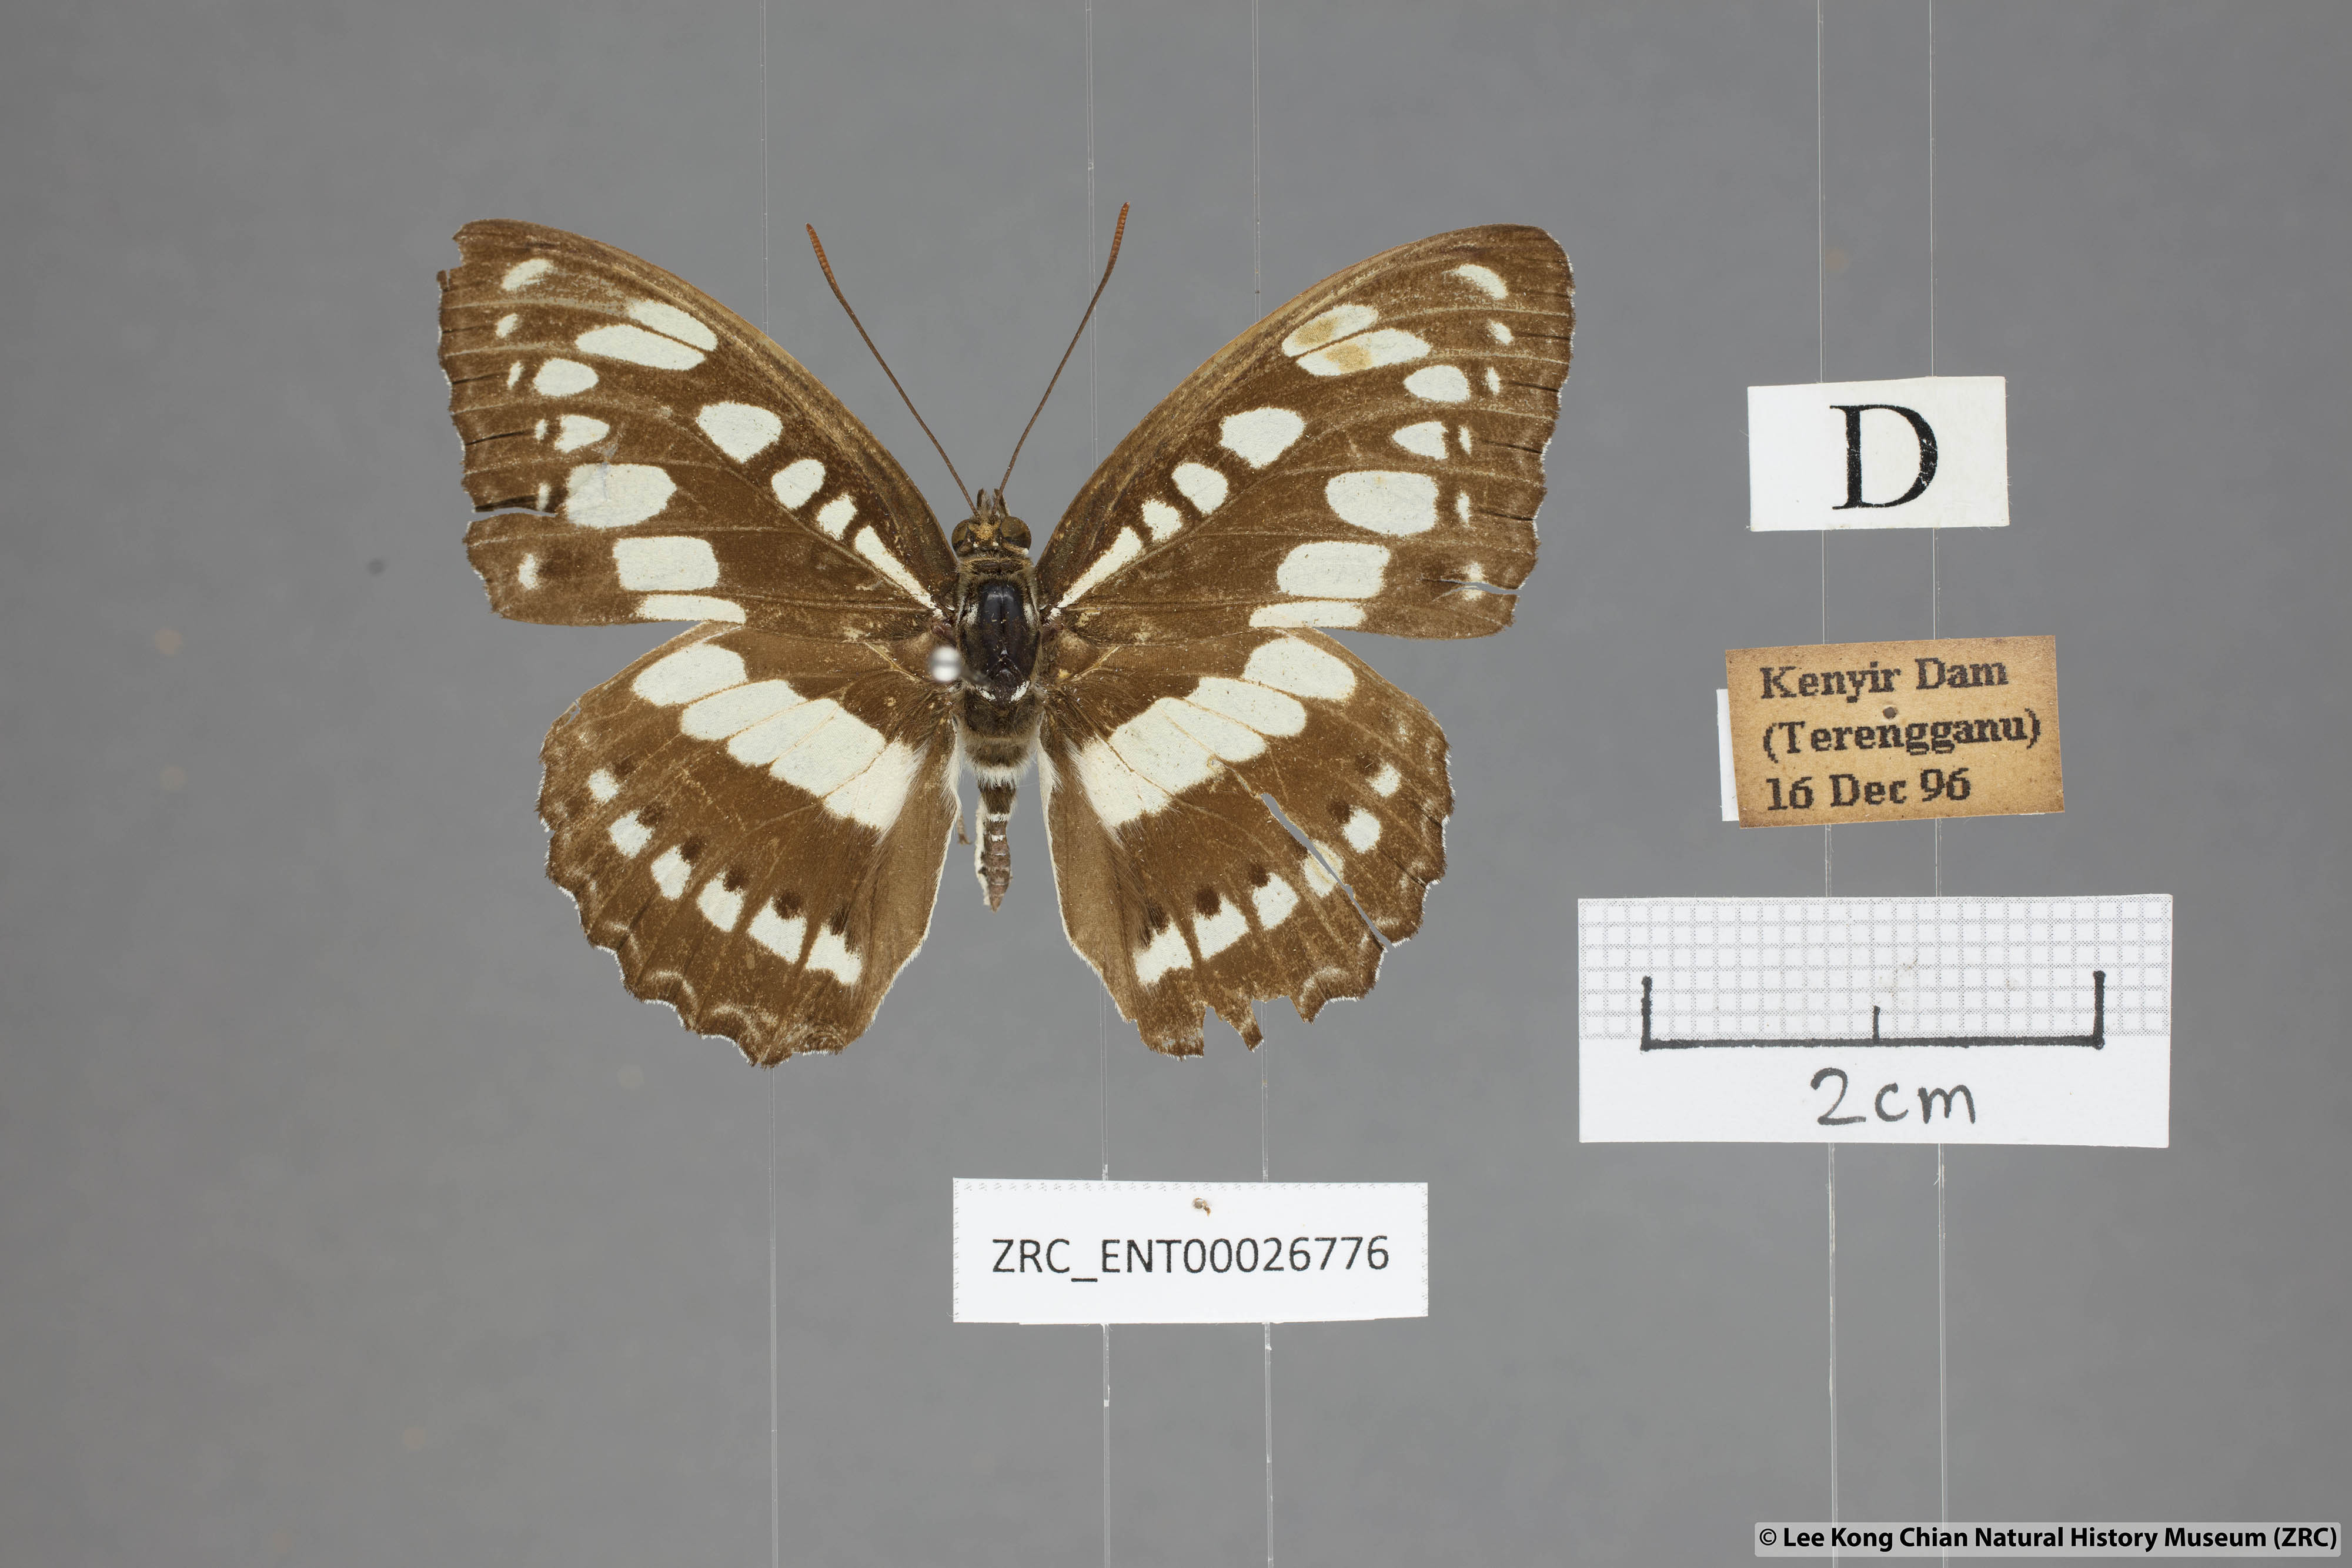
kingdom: Animalia
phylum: Arthropoda
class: Insecta
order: Lepidoptera
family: Nymphalidae
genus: Parathyma
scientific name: Parathyma perius
